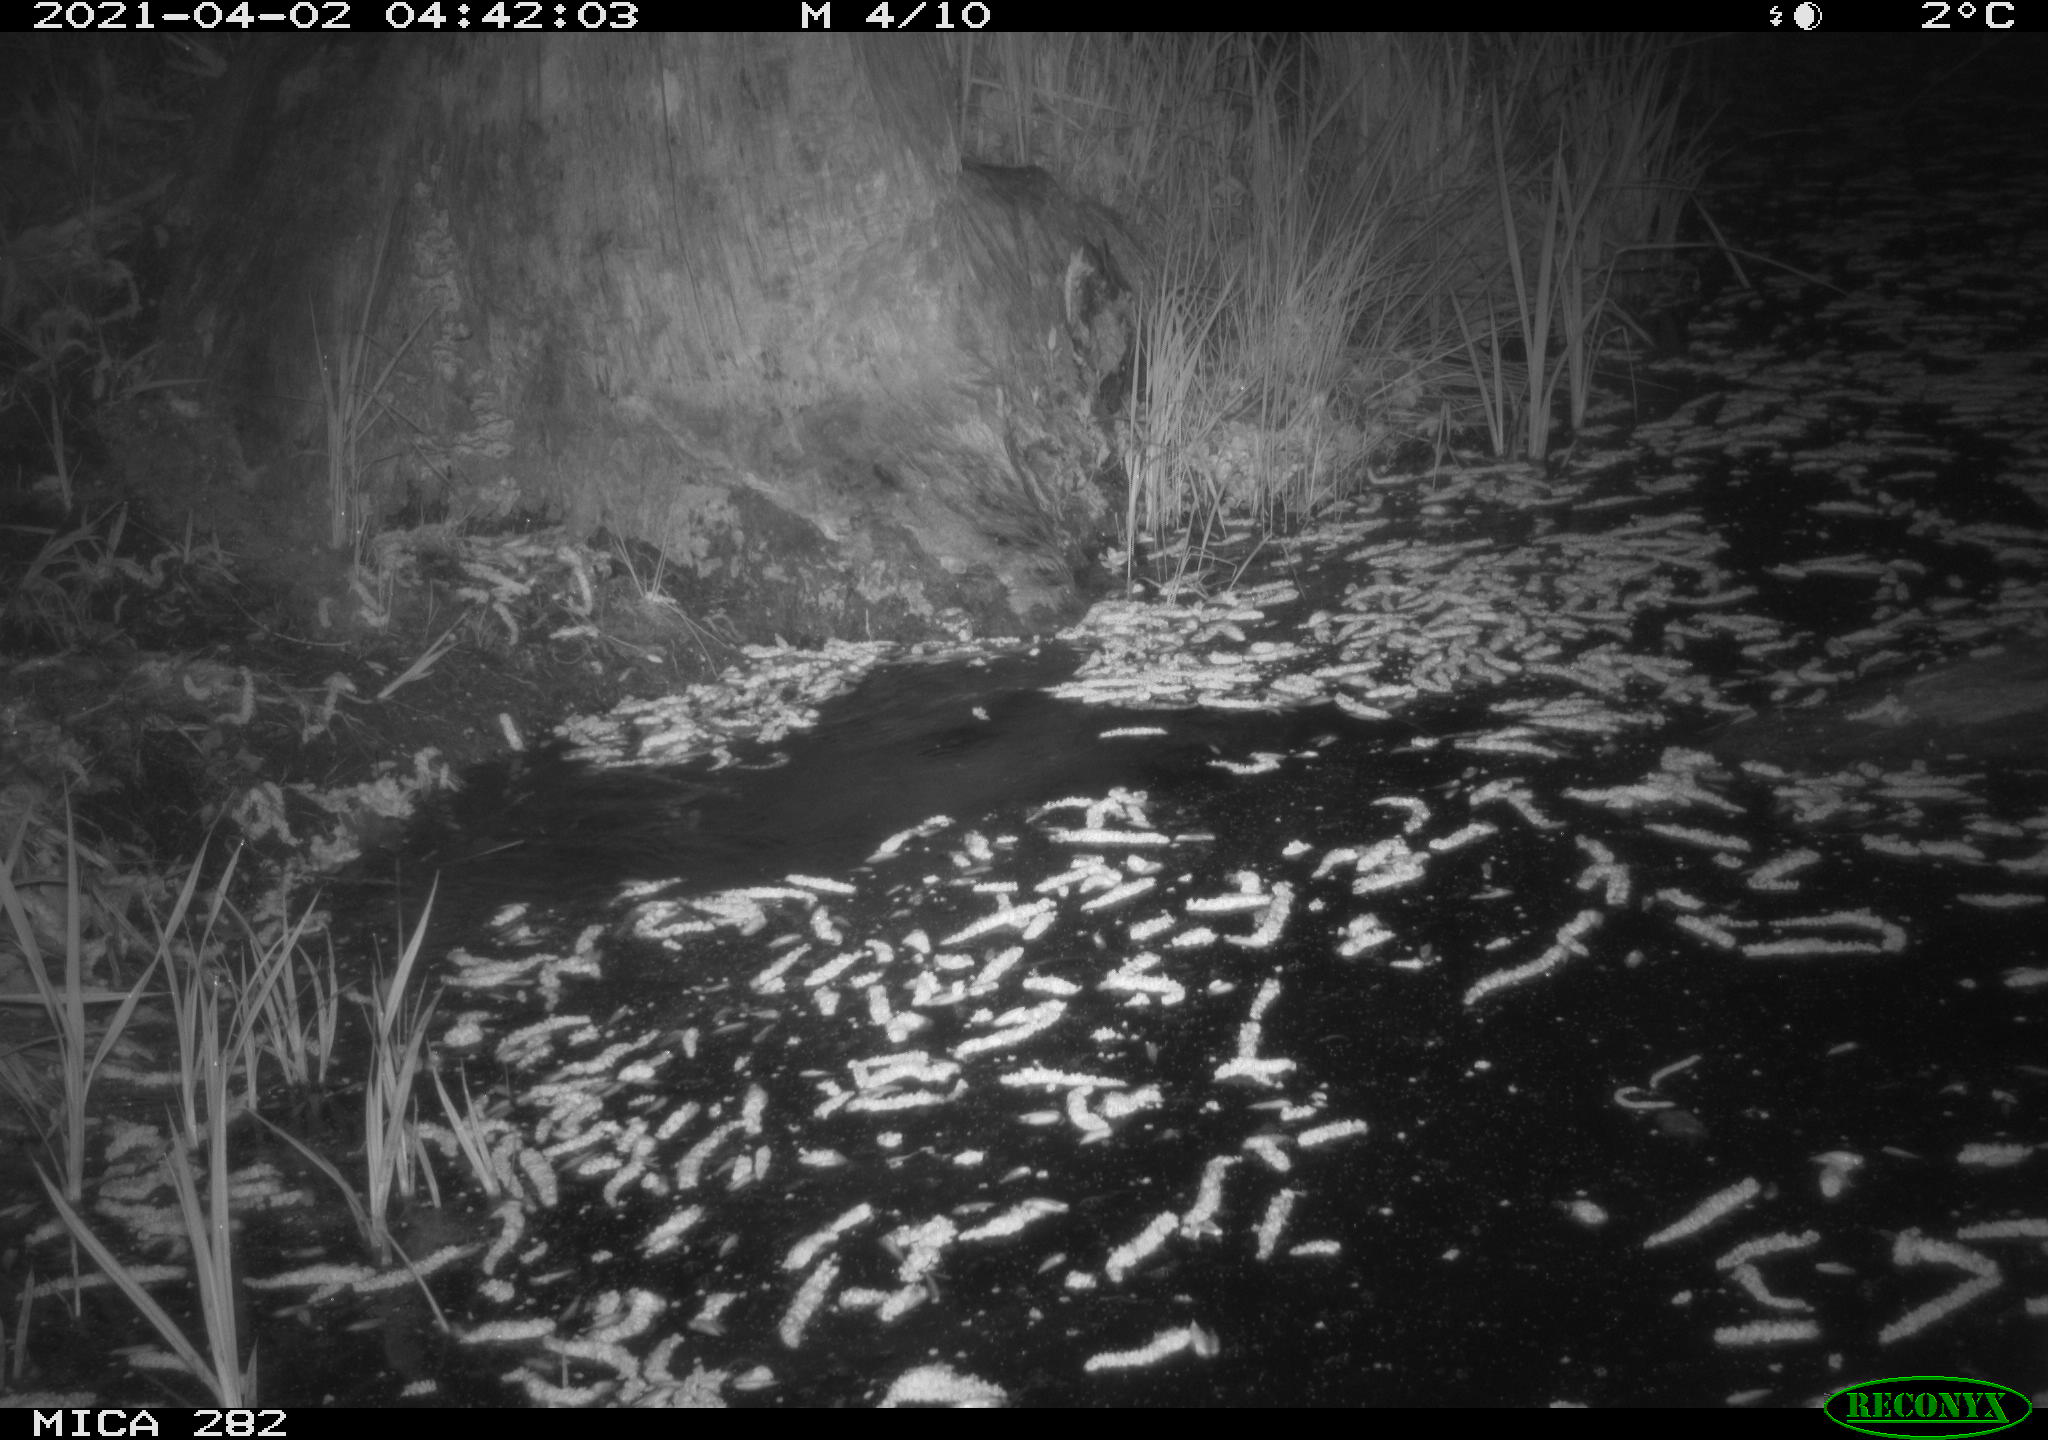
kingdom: Animalia
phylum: Chordata
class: Mammalia
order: Carnivora
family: Mustelidae
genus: Mustela
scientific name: Mustela putorius
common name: European polecat
